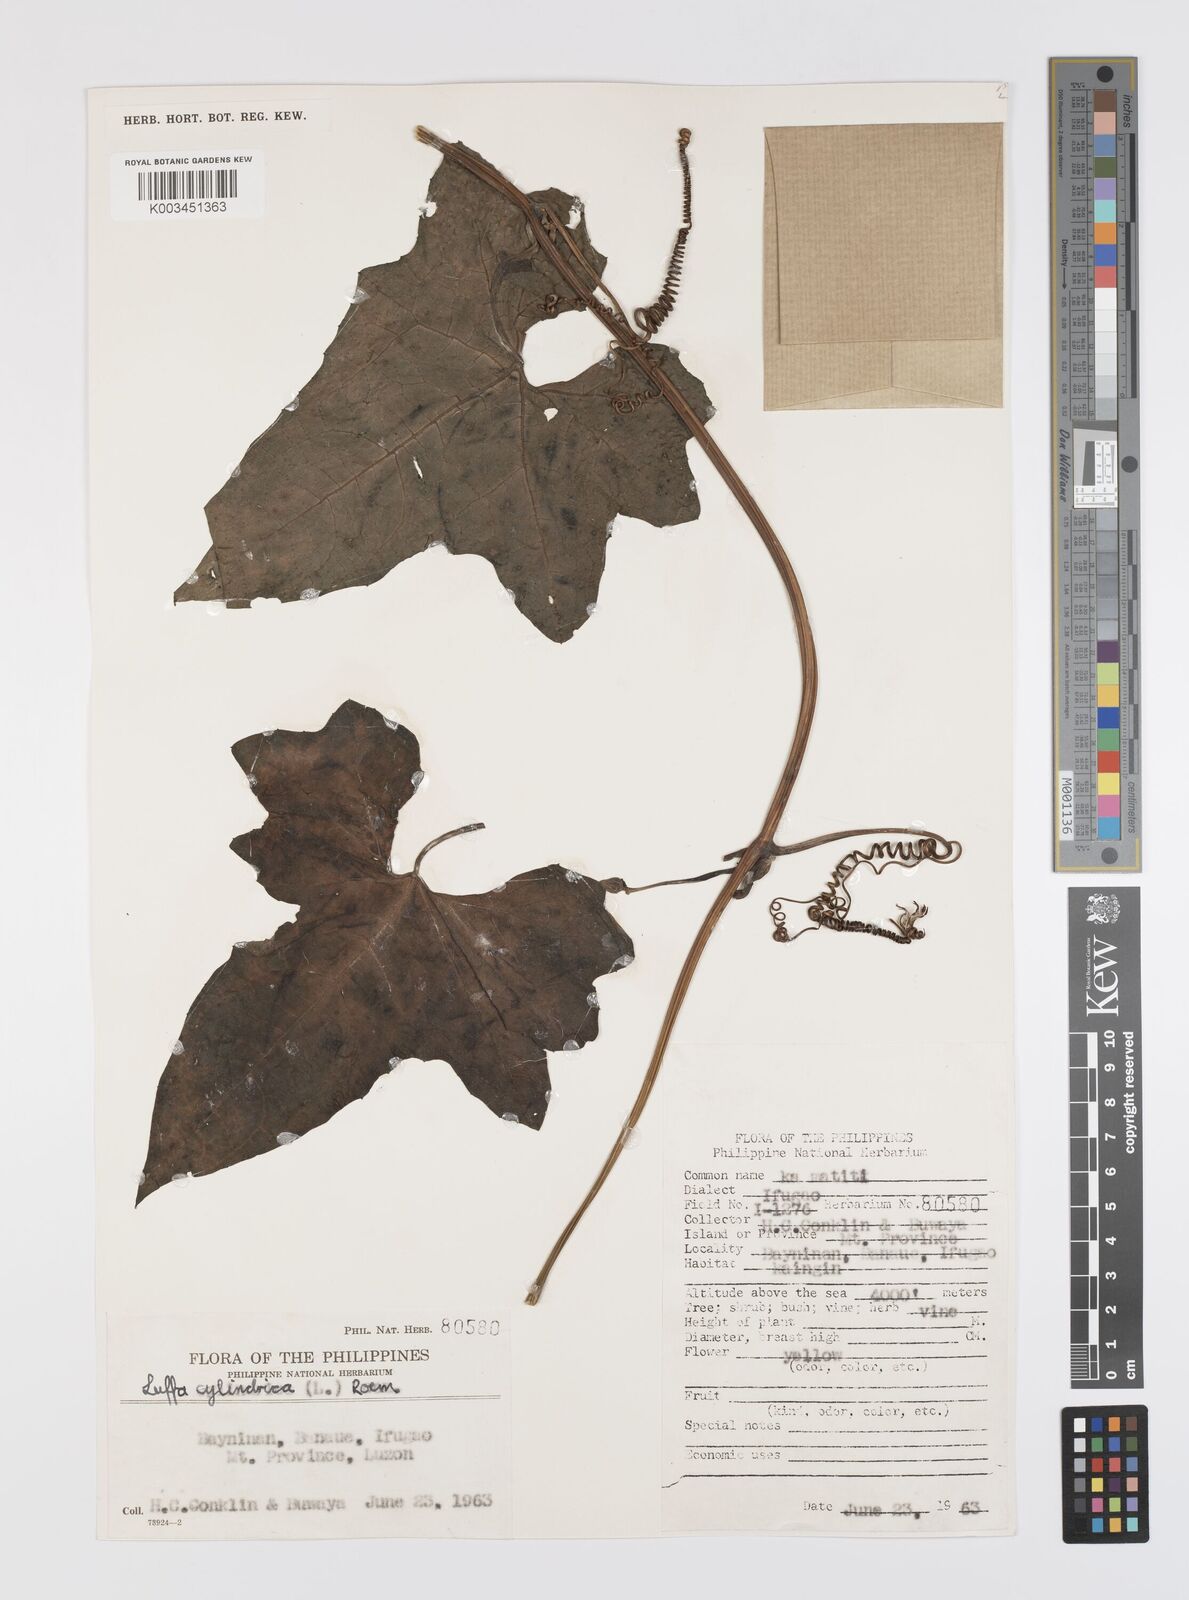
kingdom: Plantae
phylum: Tracheophyta
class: Magnoliopsida
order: Cucurbitales
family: Cucurbitaceae
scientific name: Cucurbitaceae
